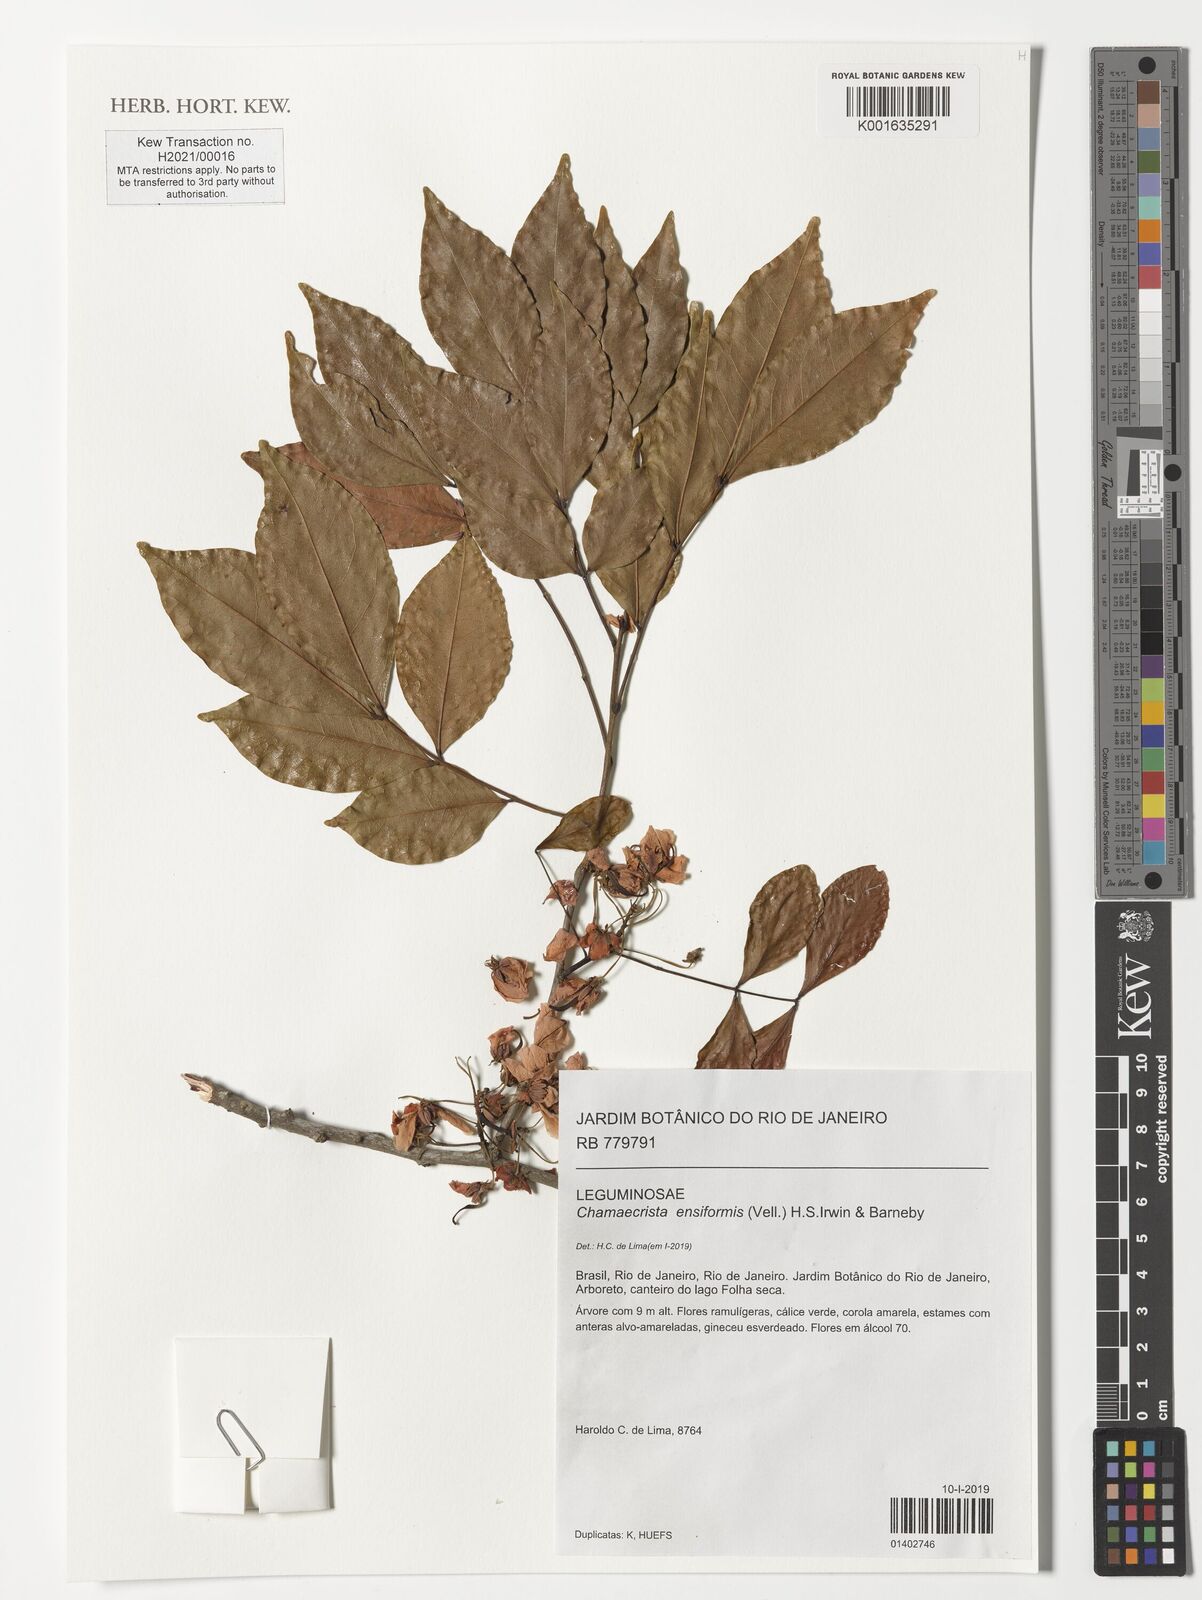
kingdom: Plantae
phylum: Tracheophyta
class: Magnoliopsida
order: Fabales
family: Fabaceae
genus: Chamaecrista
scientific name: Chamaecrista ensiformis
